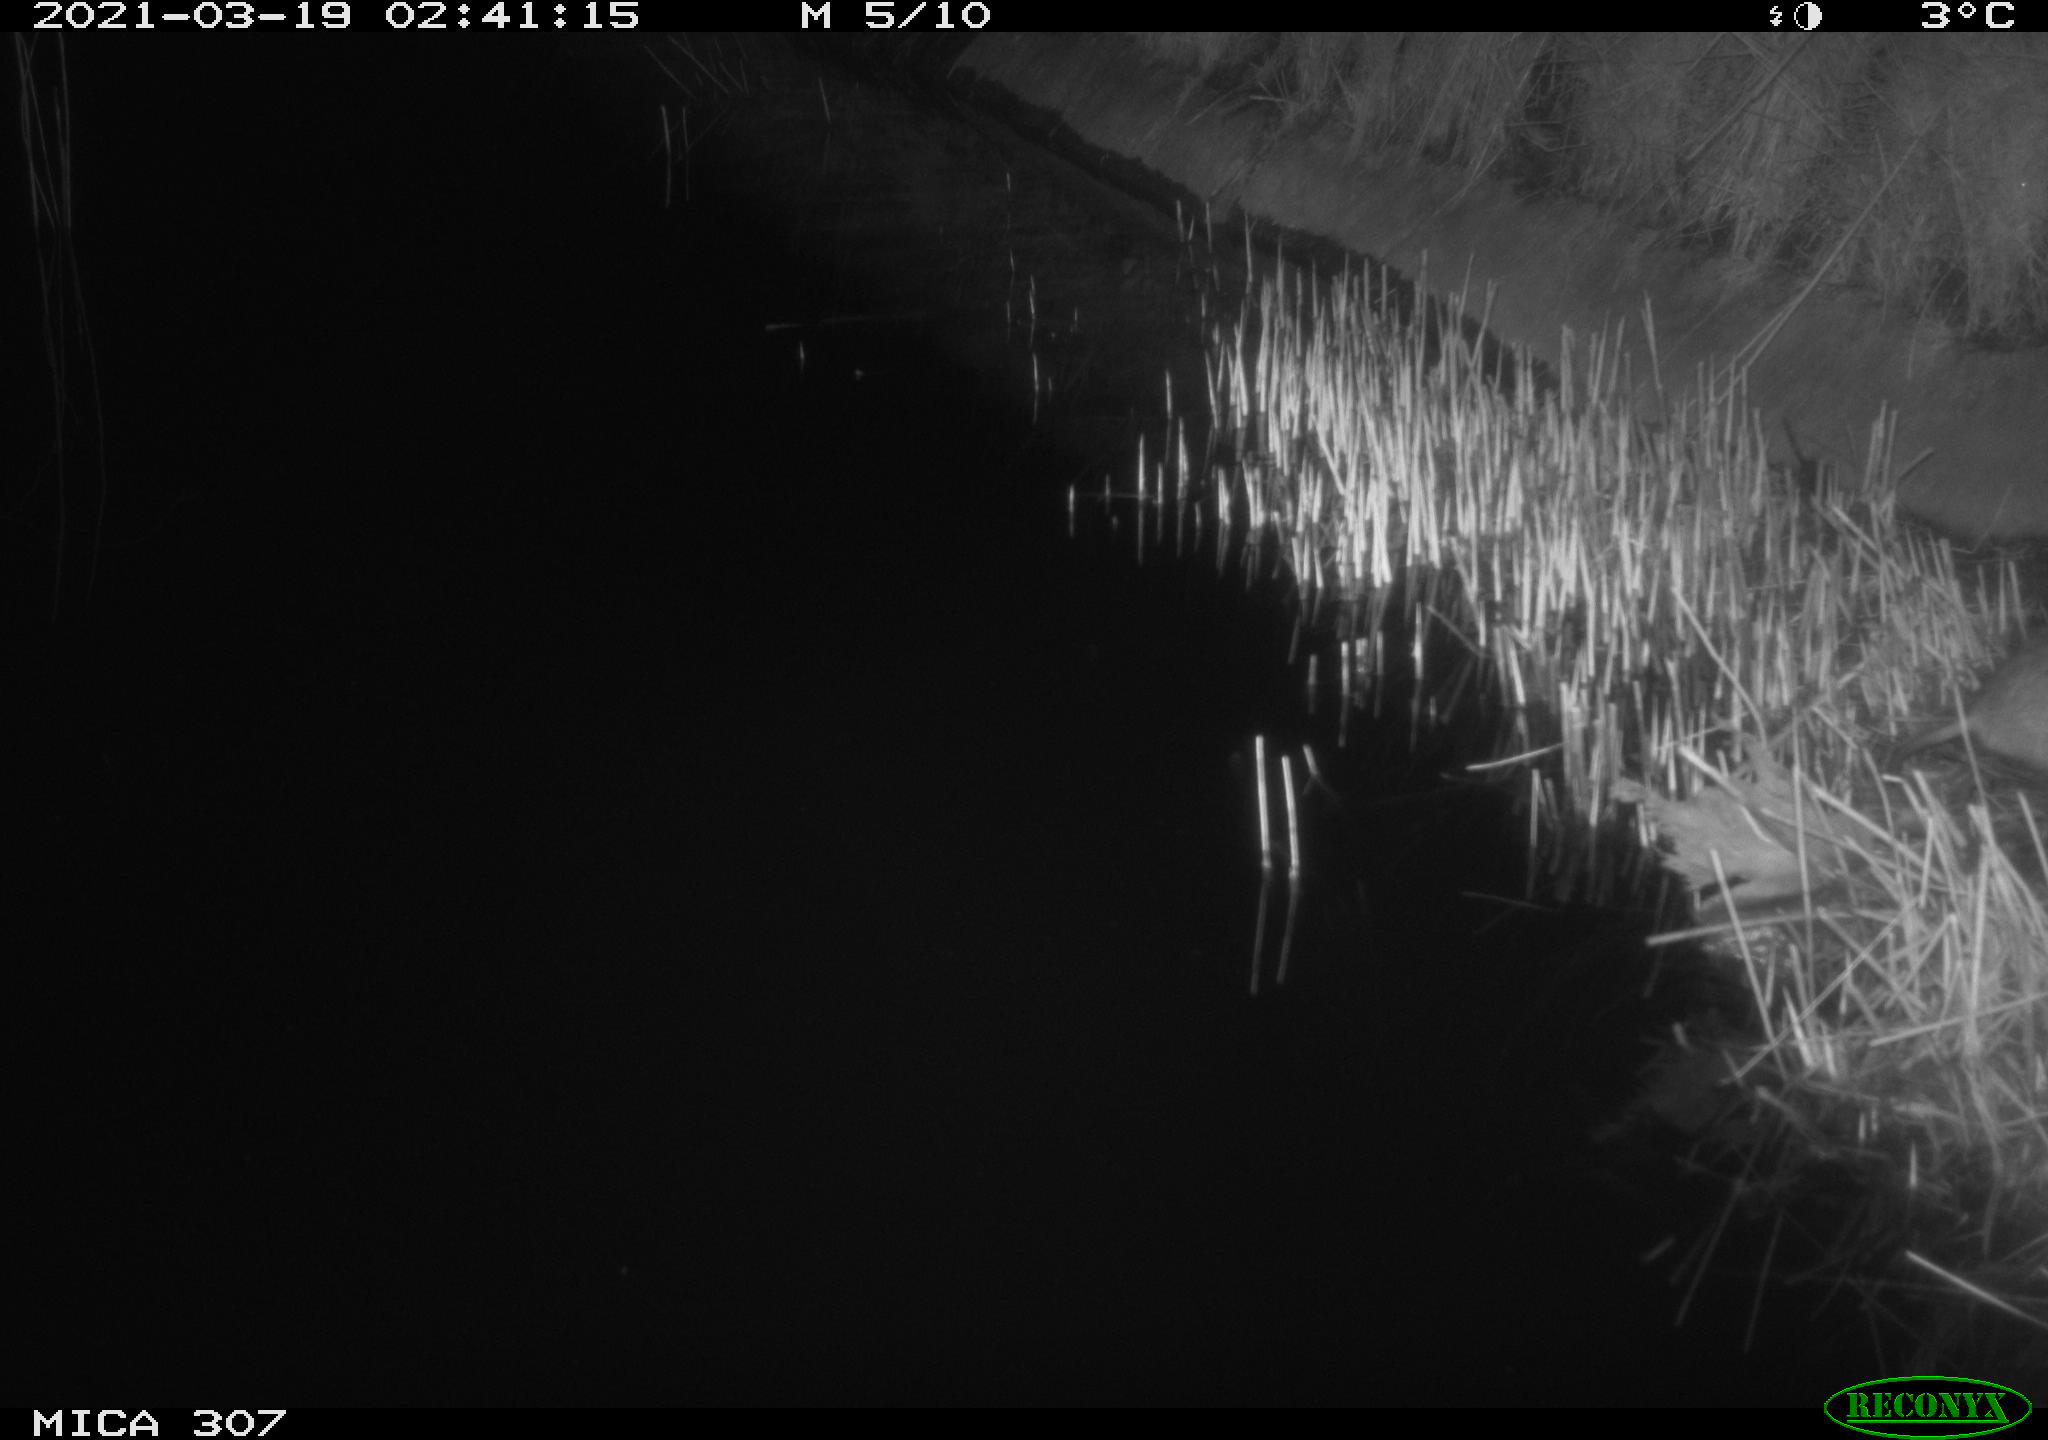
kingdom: Animalia
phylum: Chordata
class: Mammalia
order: Rodentia
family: Muridae
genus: Rattus
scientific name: Rattus norvegicus
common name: Brown rat
